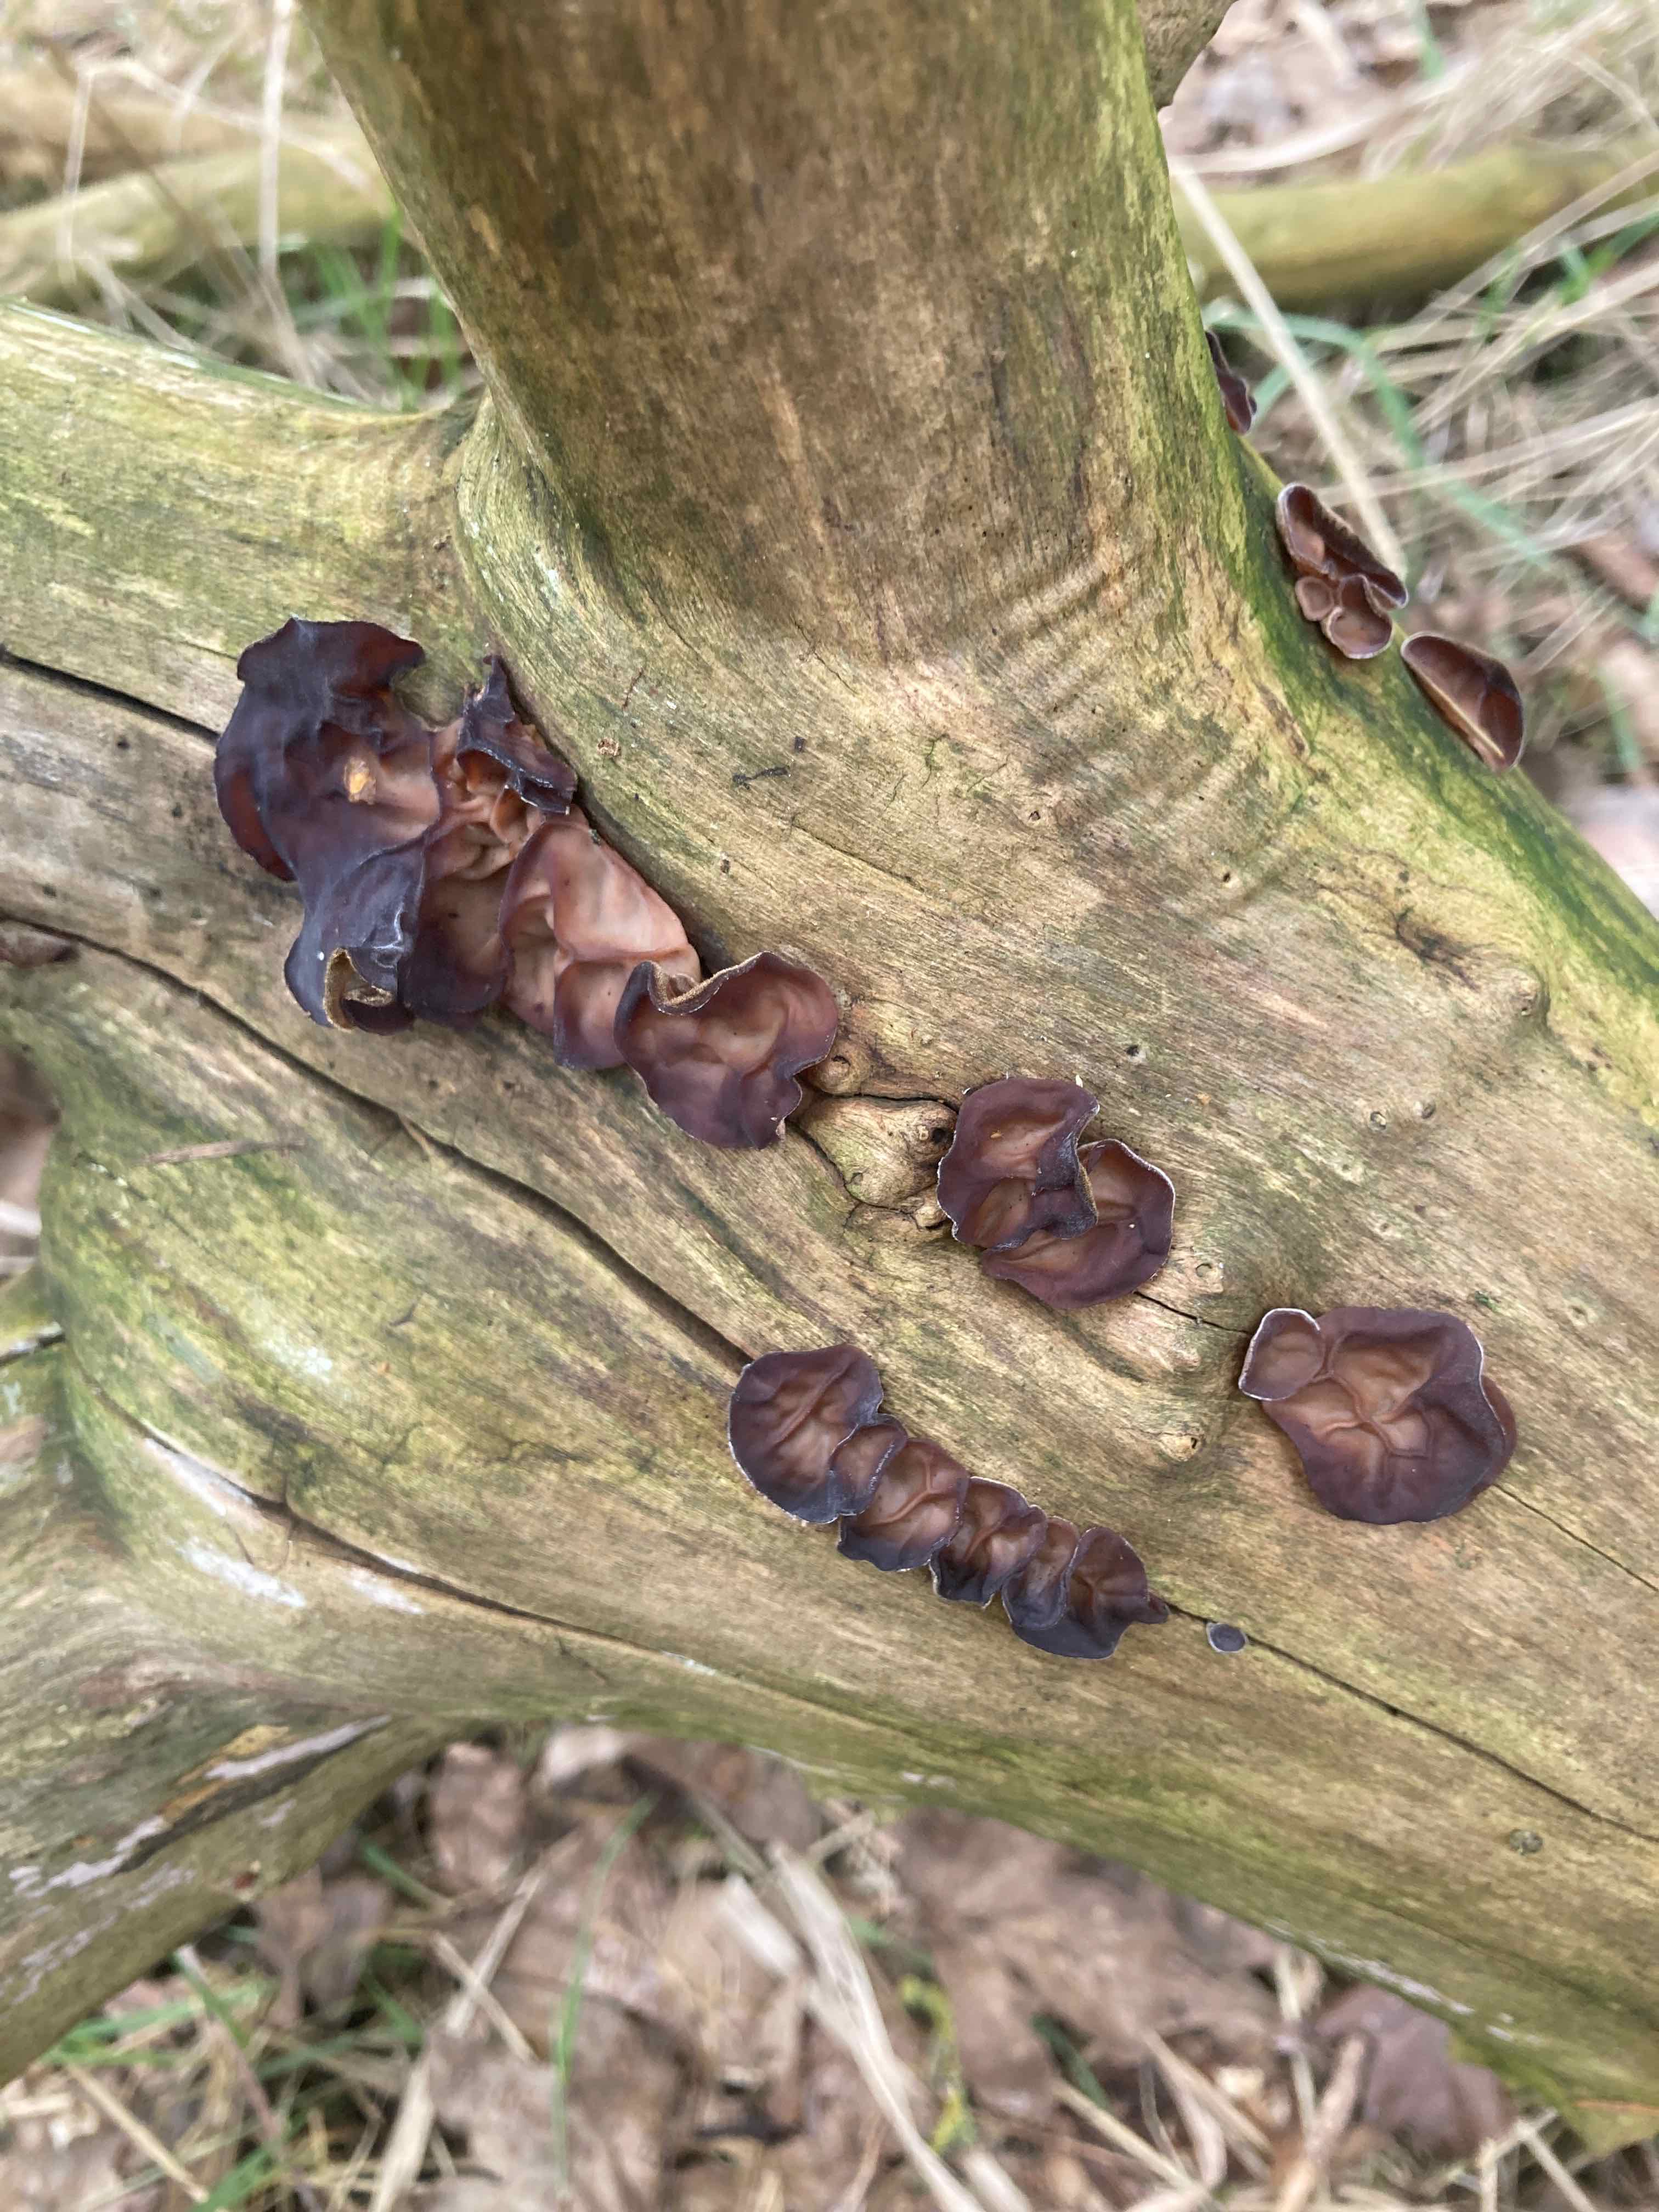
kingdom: Fungi
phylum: Basidiomycota
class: Agaricomycetes
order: Auriculariales
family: Auriculariaceae
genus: Auricularia
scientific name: Auricularia auricula-judae
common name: almindelig judasøre
